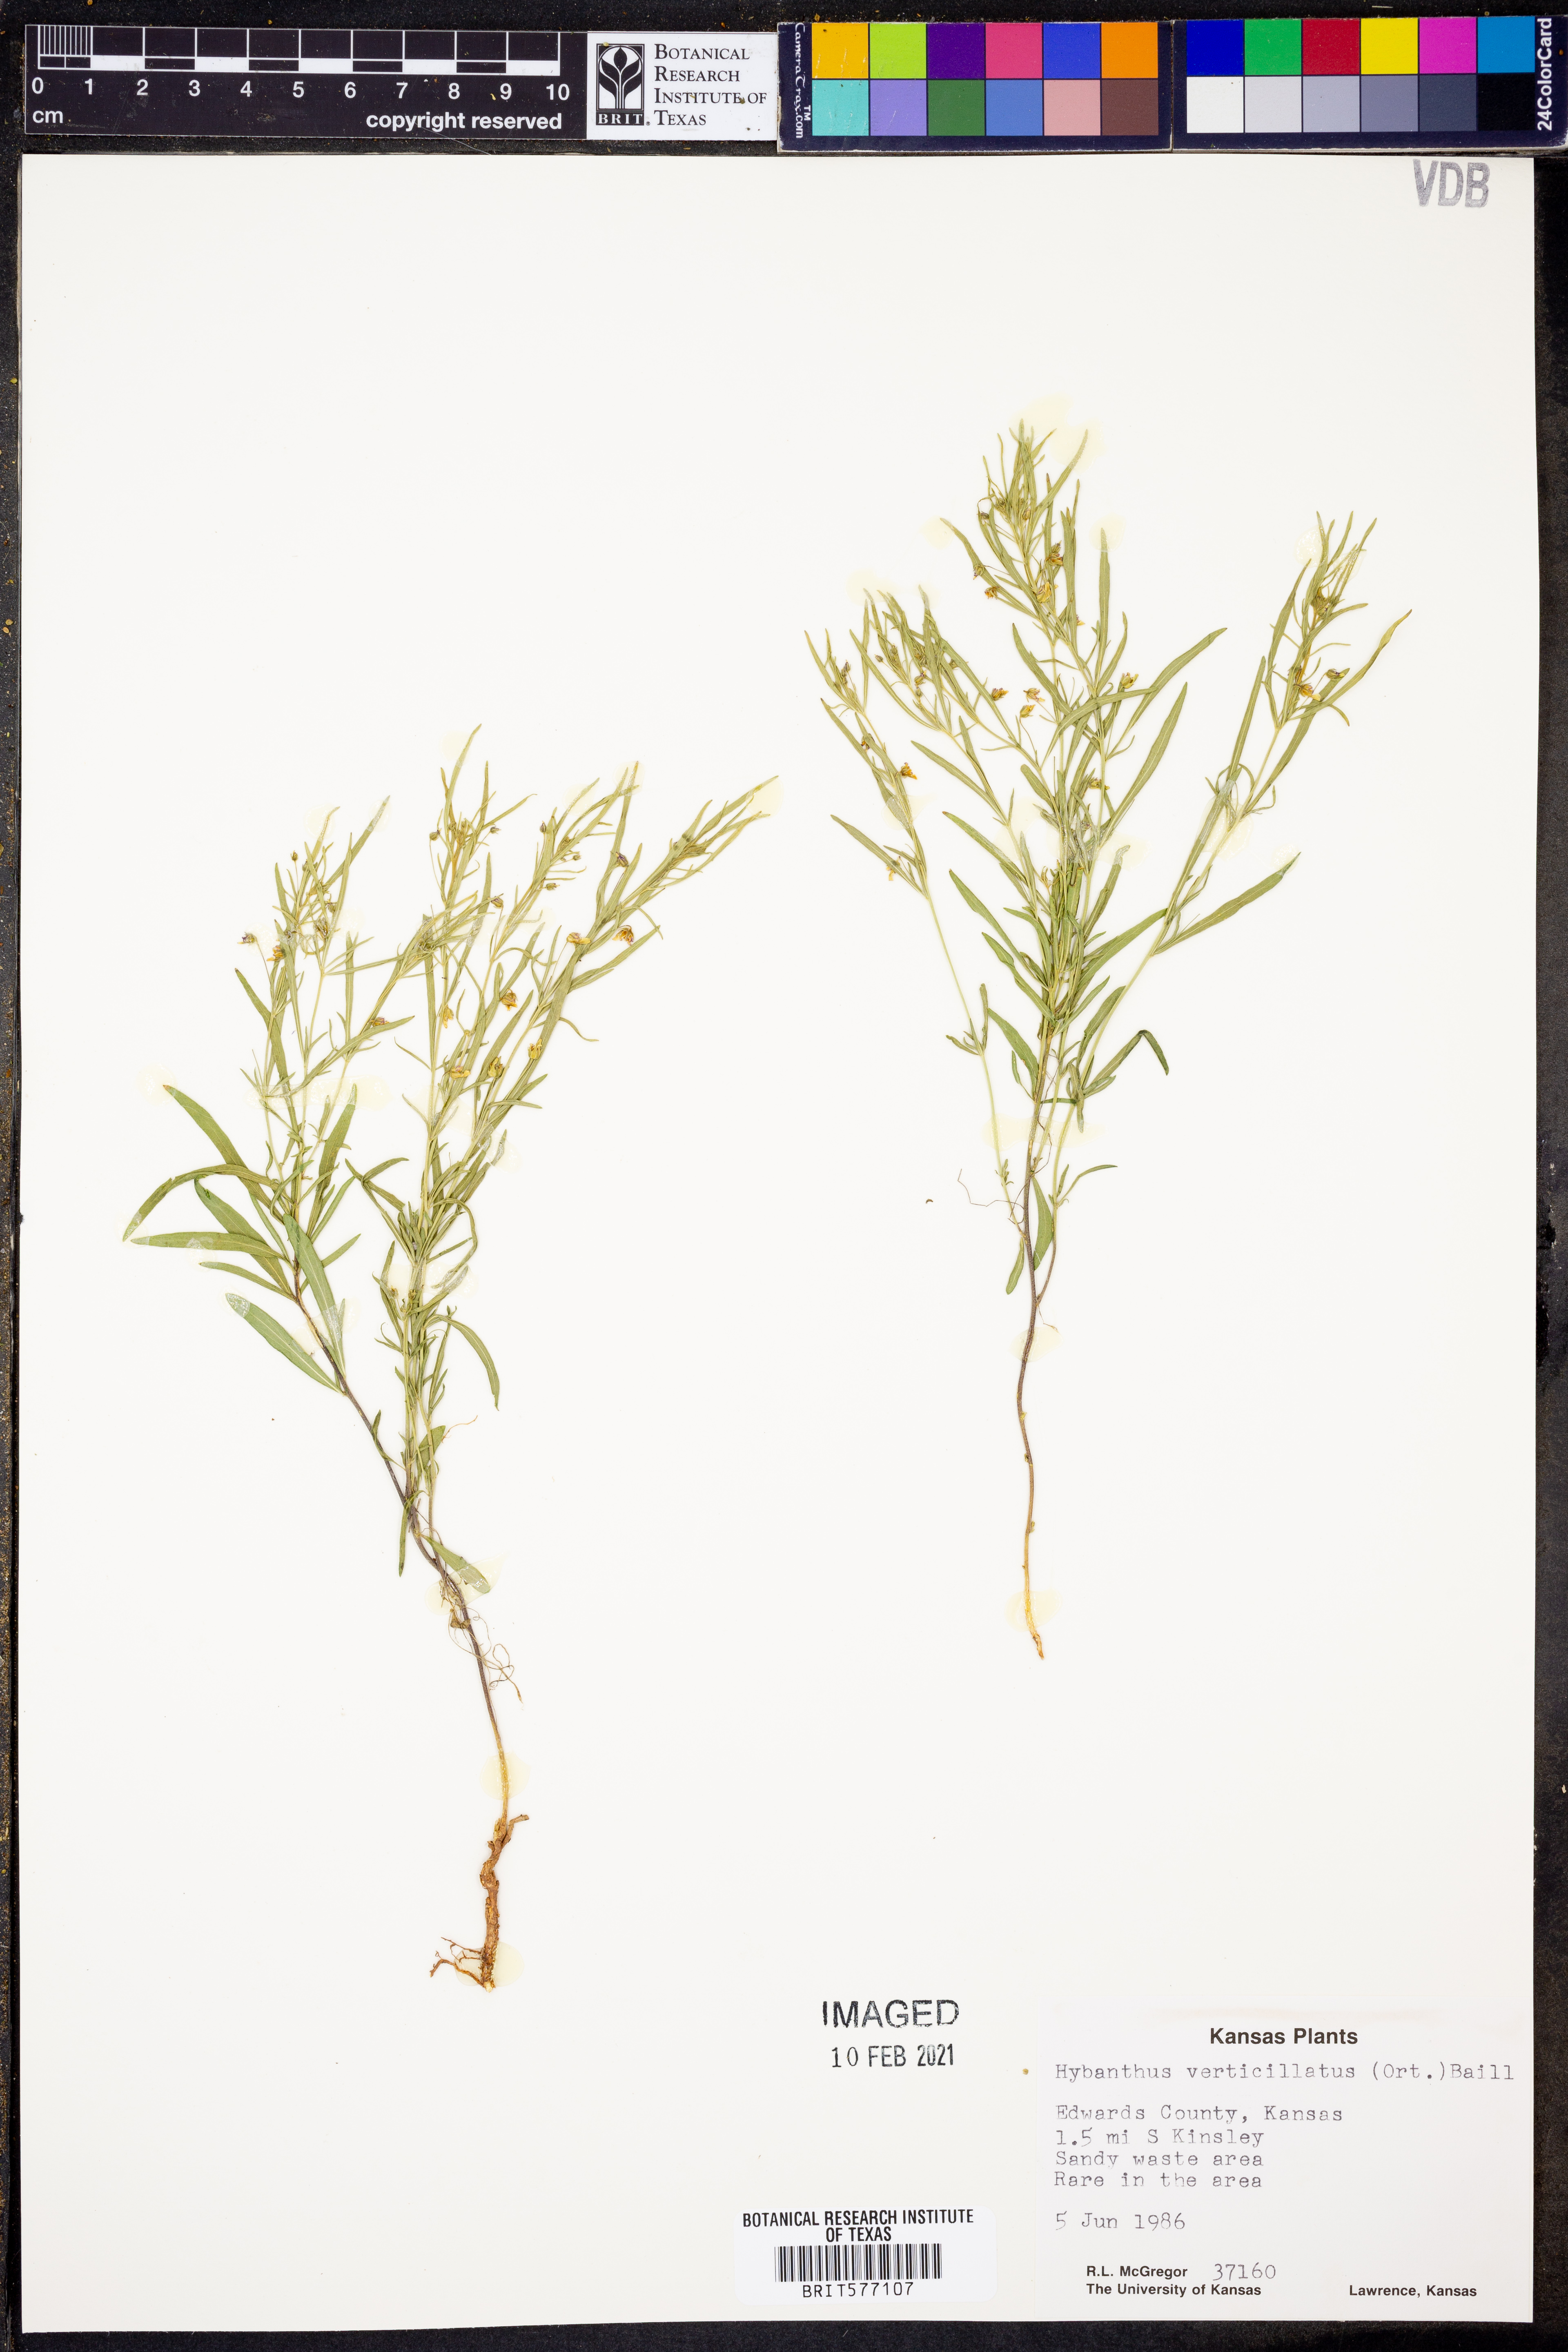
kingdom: Plantae
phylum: Tracheophyta
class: Magnoliopsida
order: Malpighiales
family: Violaceae
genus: Pombalia
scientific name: Pombalia verticillata
